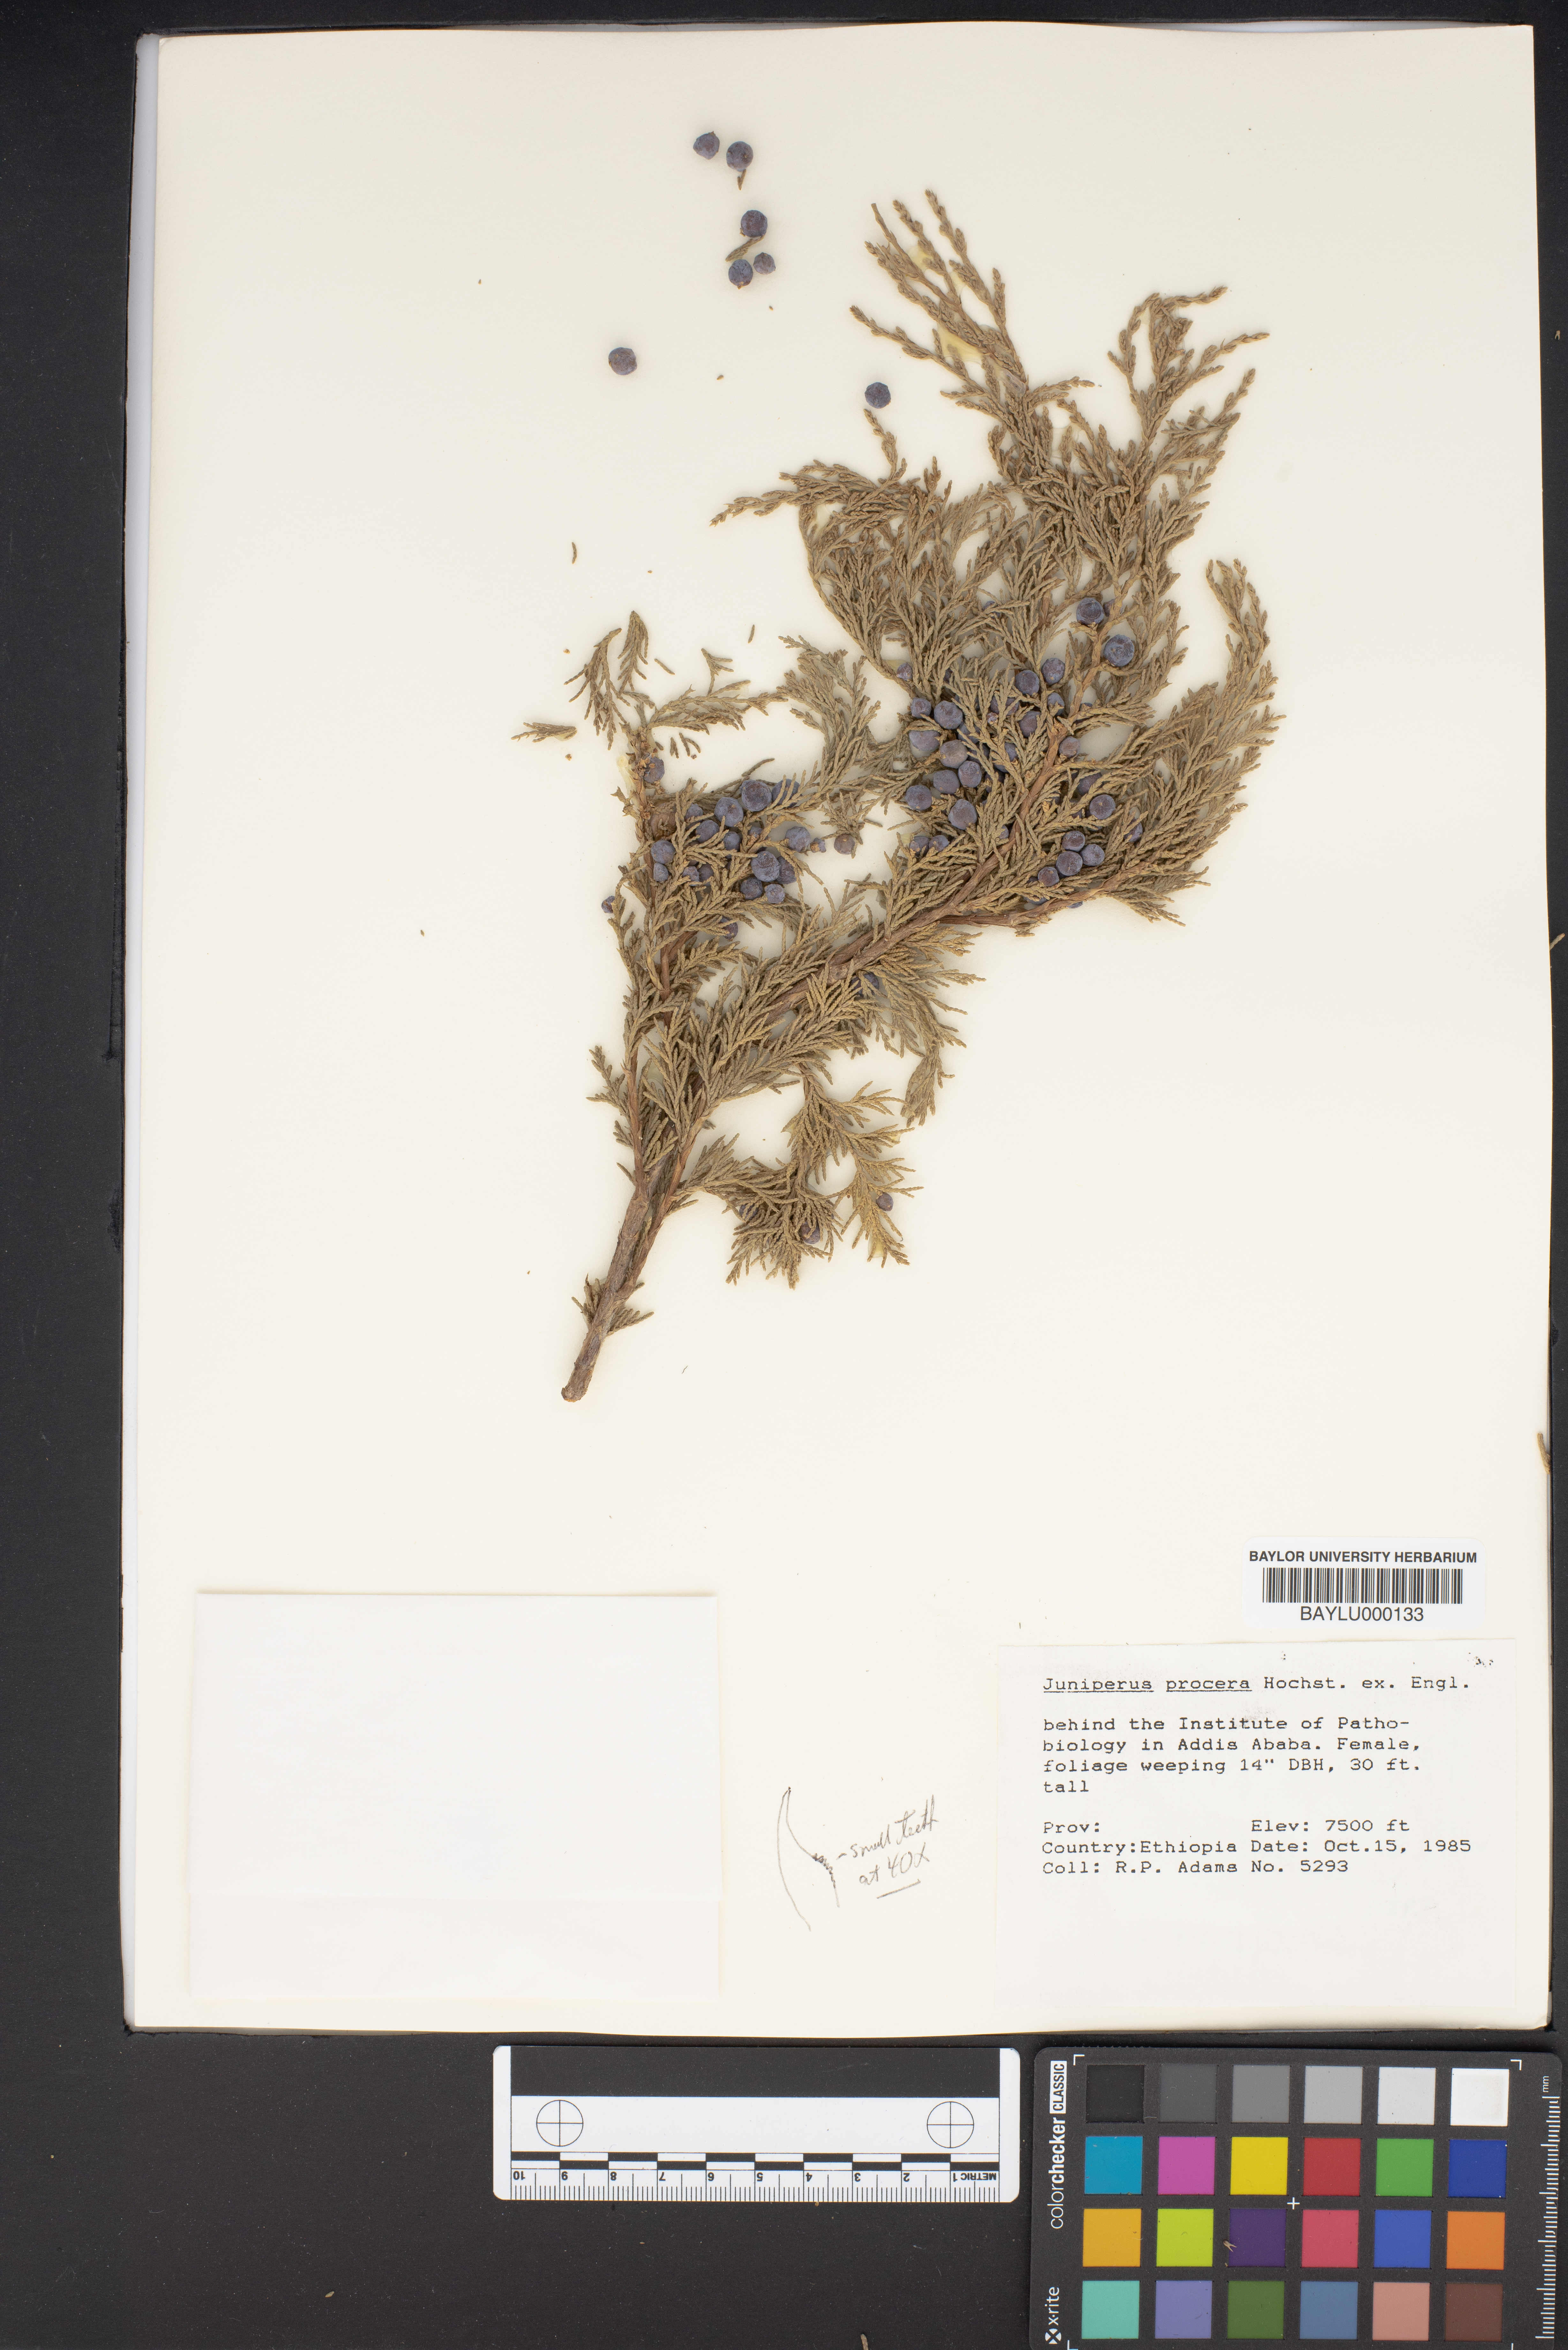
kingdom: Plantae
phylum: Tracheophyta
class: Pinopsida
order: Pinales
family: Cupressaceae
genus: Juniperus
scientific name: Juniperus procera
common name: African juniper
